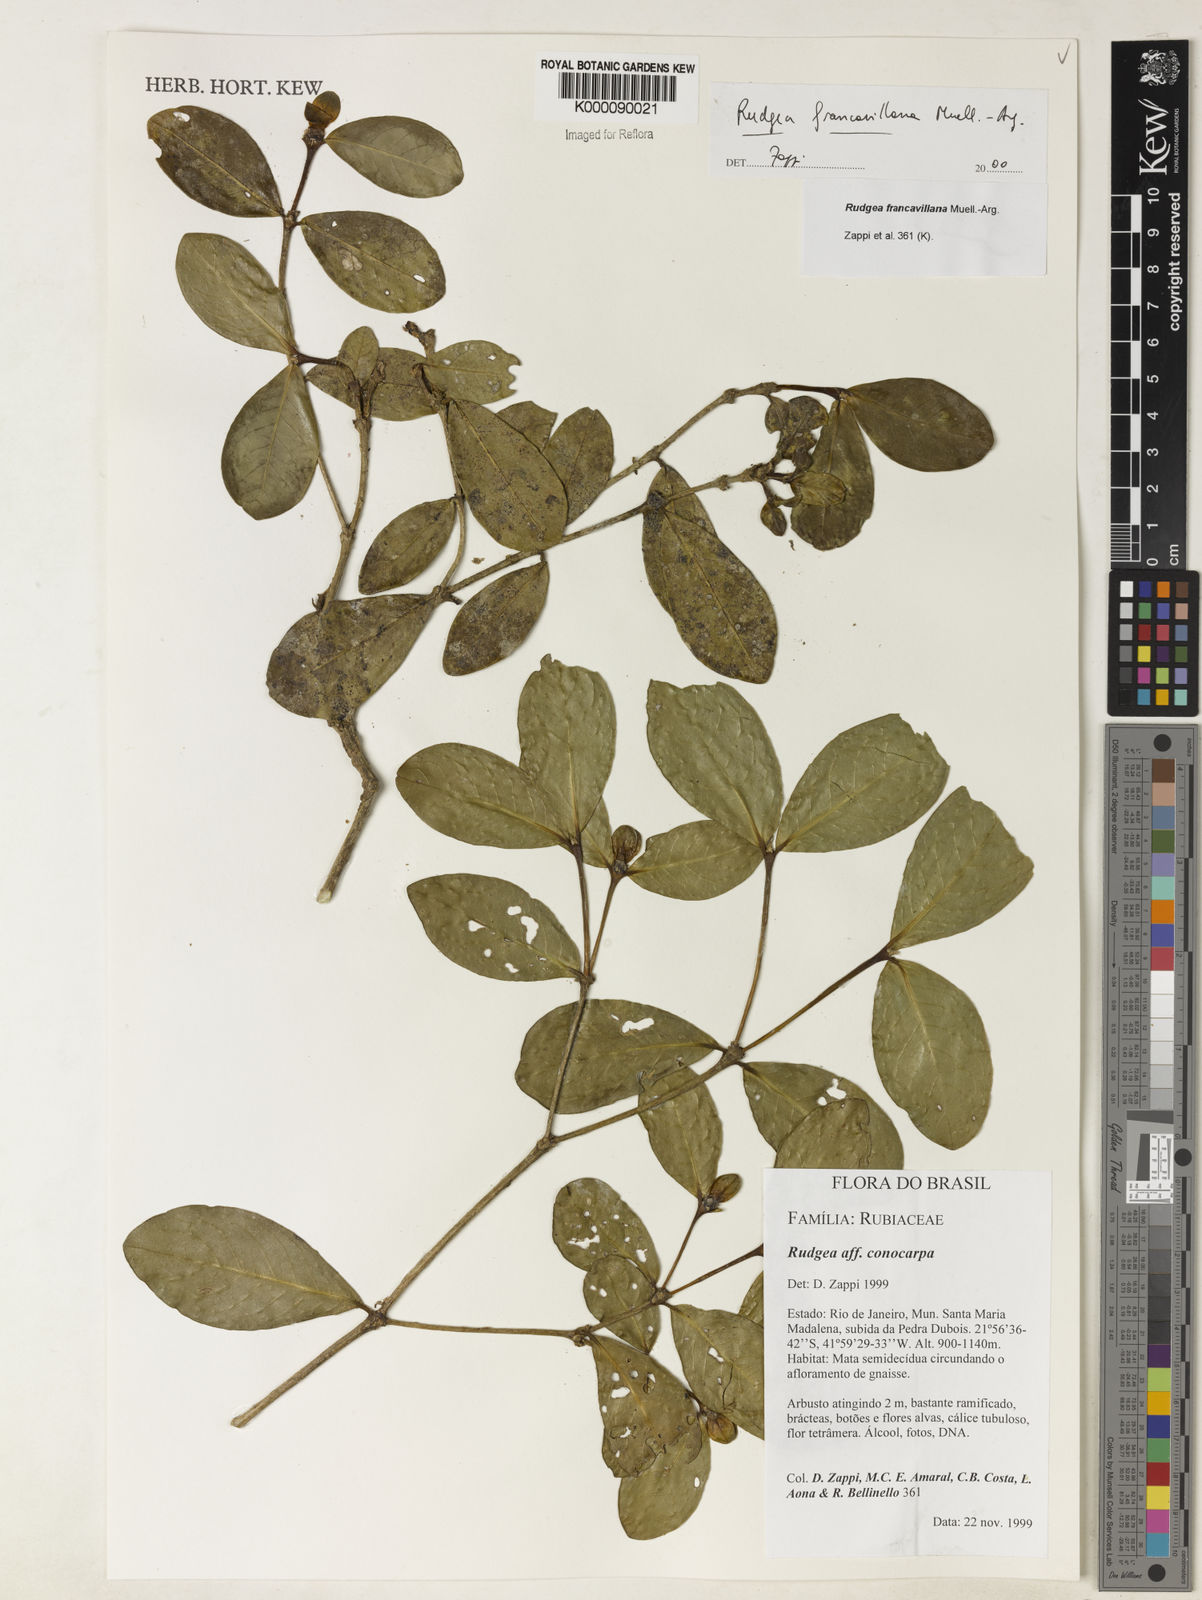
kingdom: Plantae
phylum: Tracheophyta
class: Magnoliopsida
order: Gentianales
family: Rubiaceae
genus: Rudgea
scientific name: Rudgea francavillana
